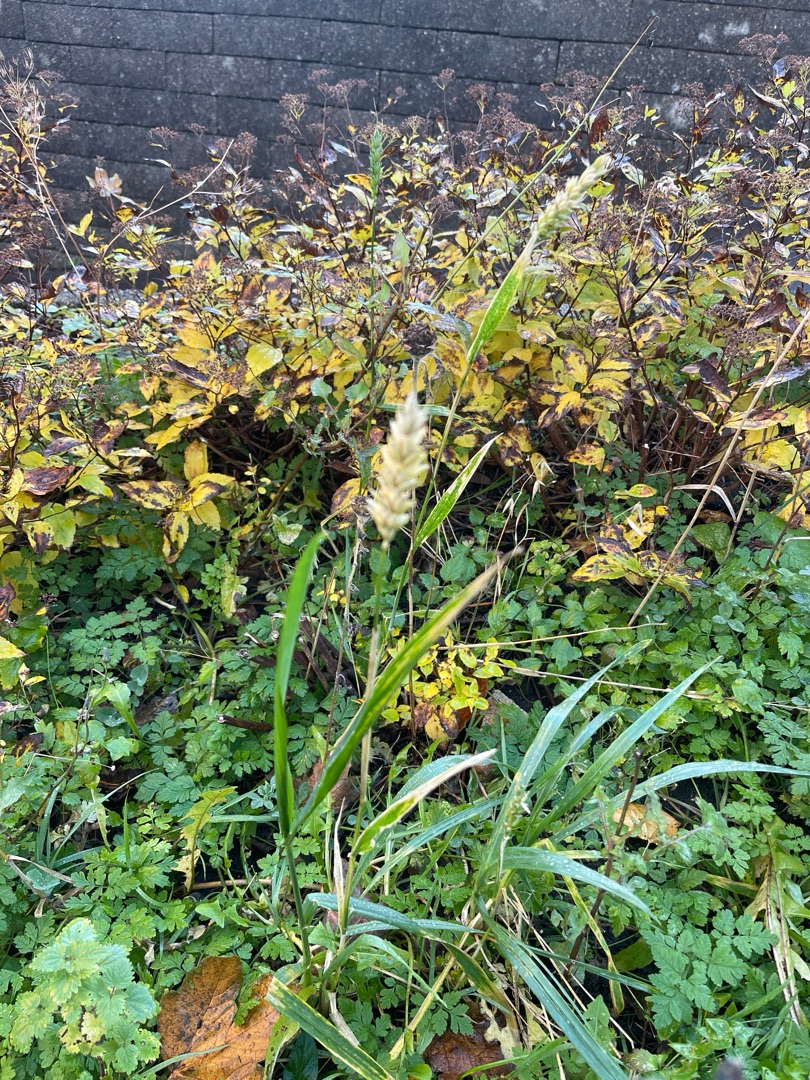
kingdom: Plantae
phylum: Tracheophyta
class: Liliopsida
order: Poales
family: Poaceae
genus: Triticum
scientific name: Triticum aestivum
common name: Almindelig hvede
